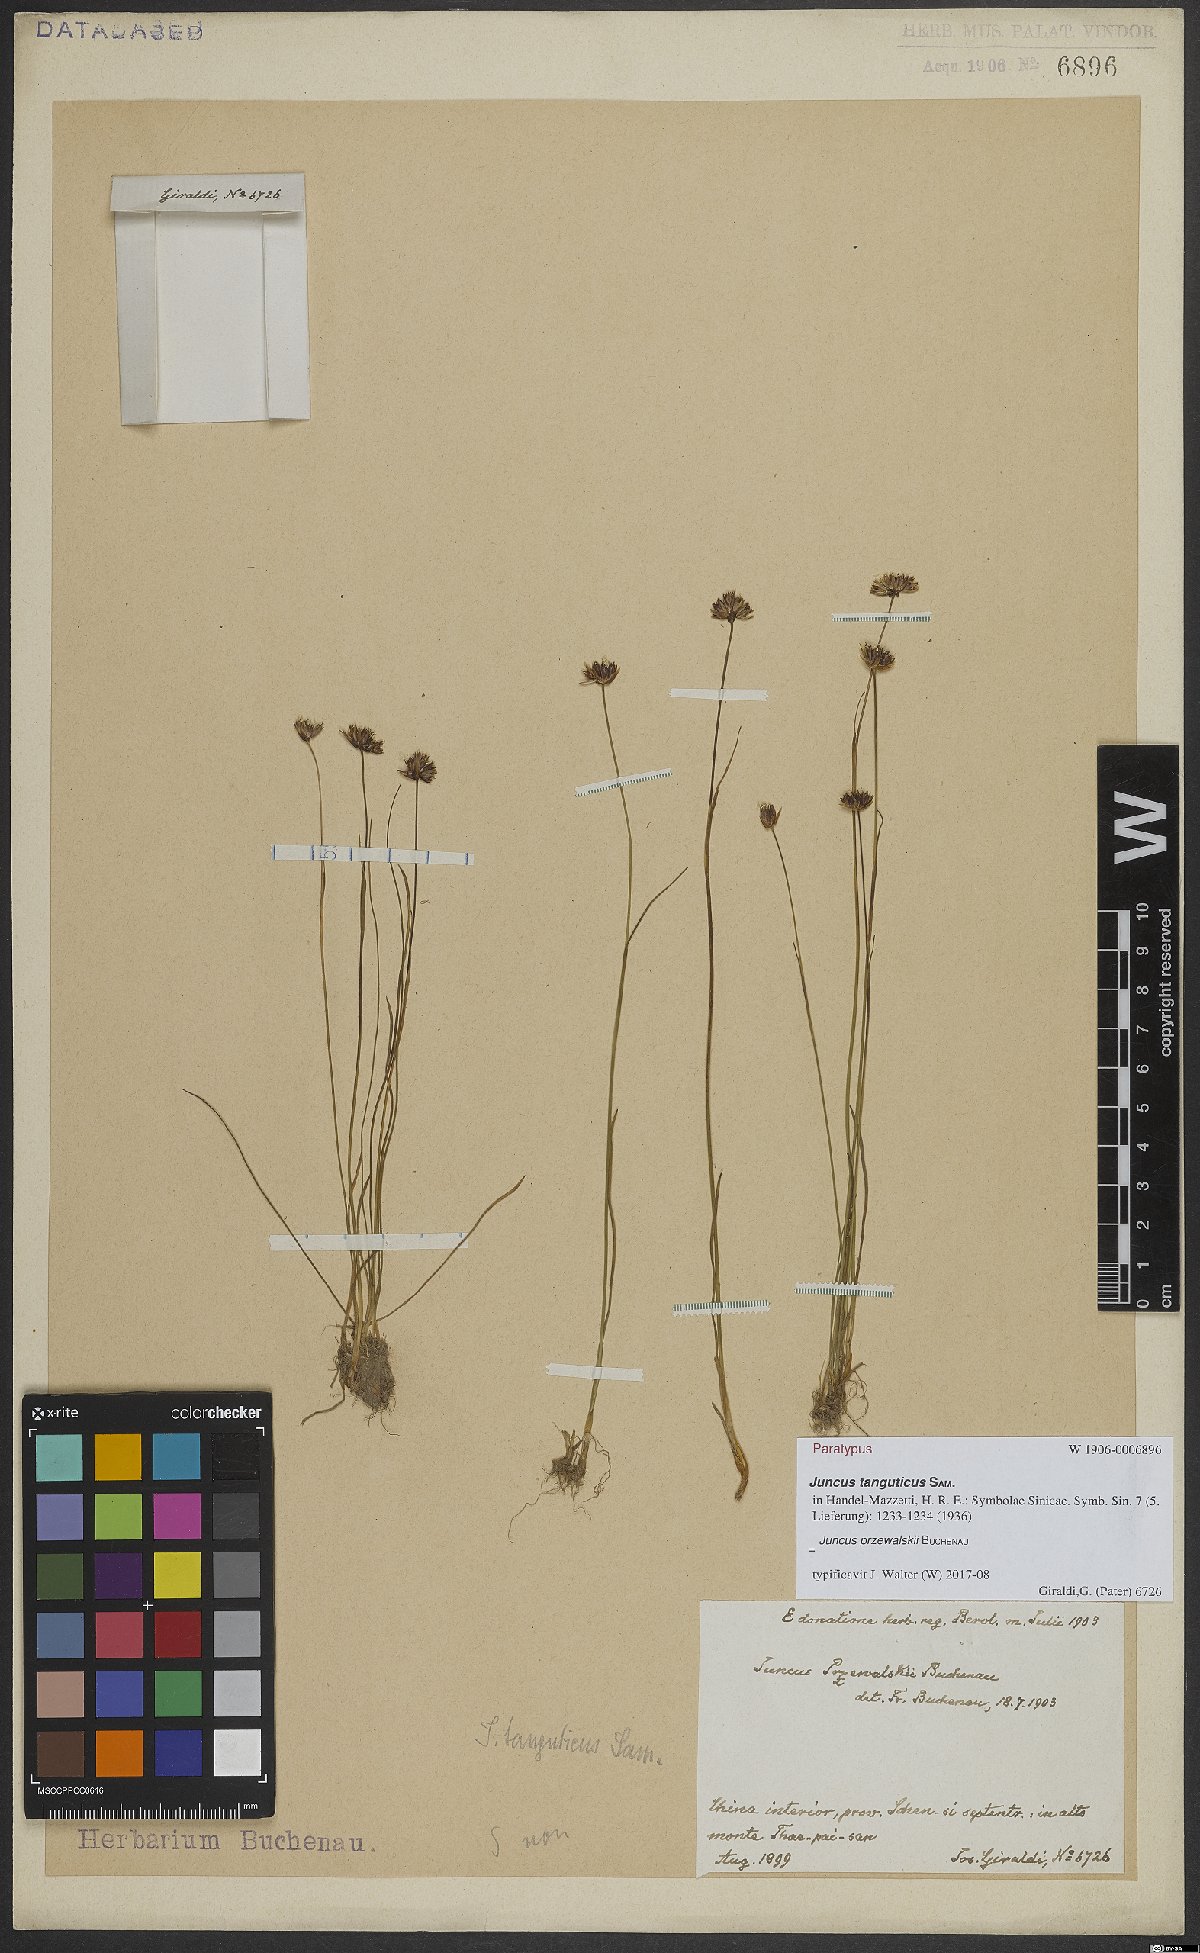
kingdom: Plantae
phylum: Tracheophyta
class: Liliopsida
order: Poales
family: Juncaceae
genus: Juncus
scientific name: Juncus przewalskii
